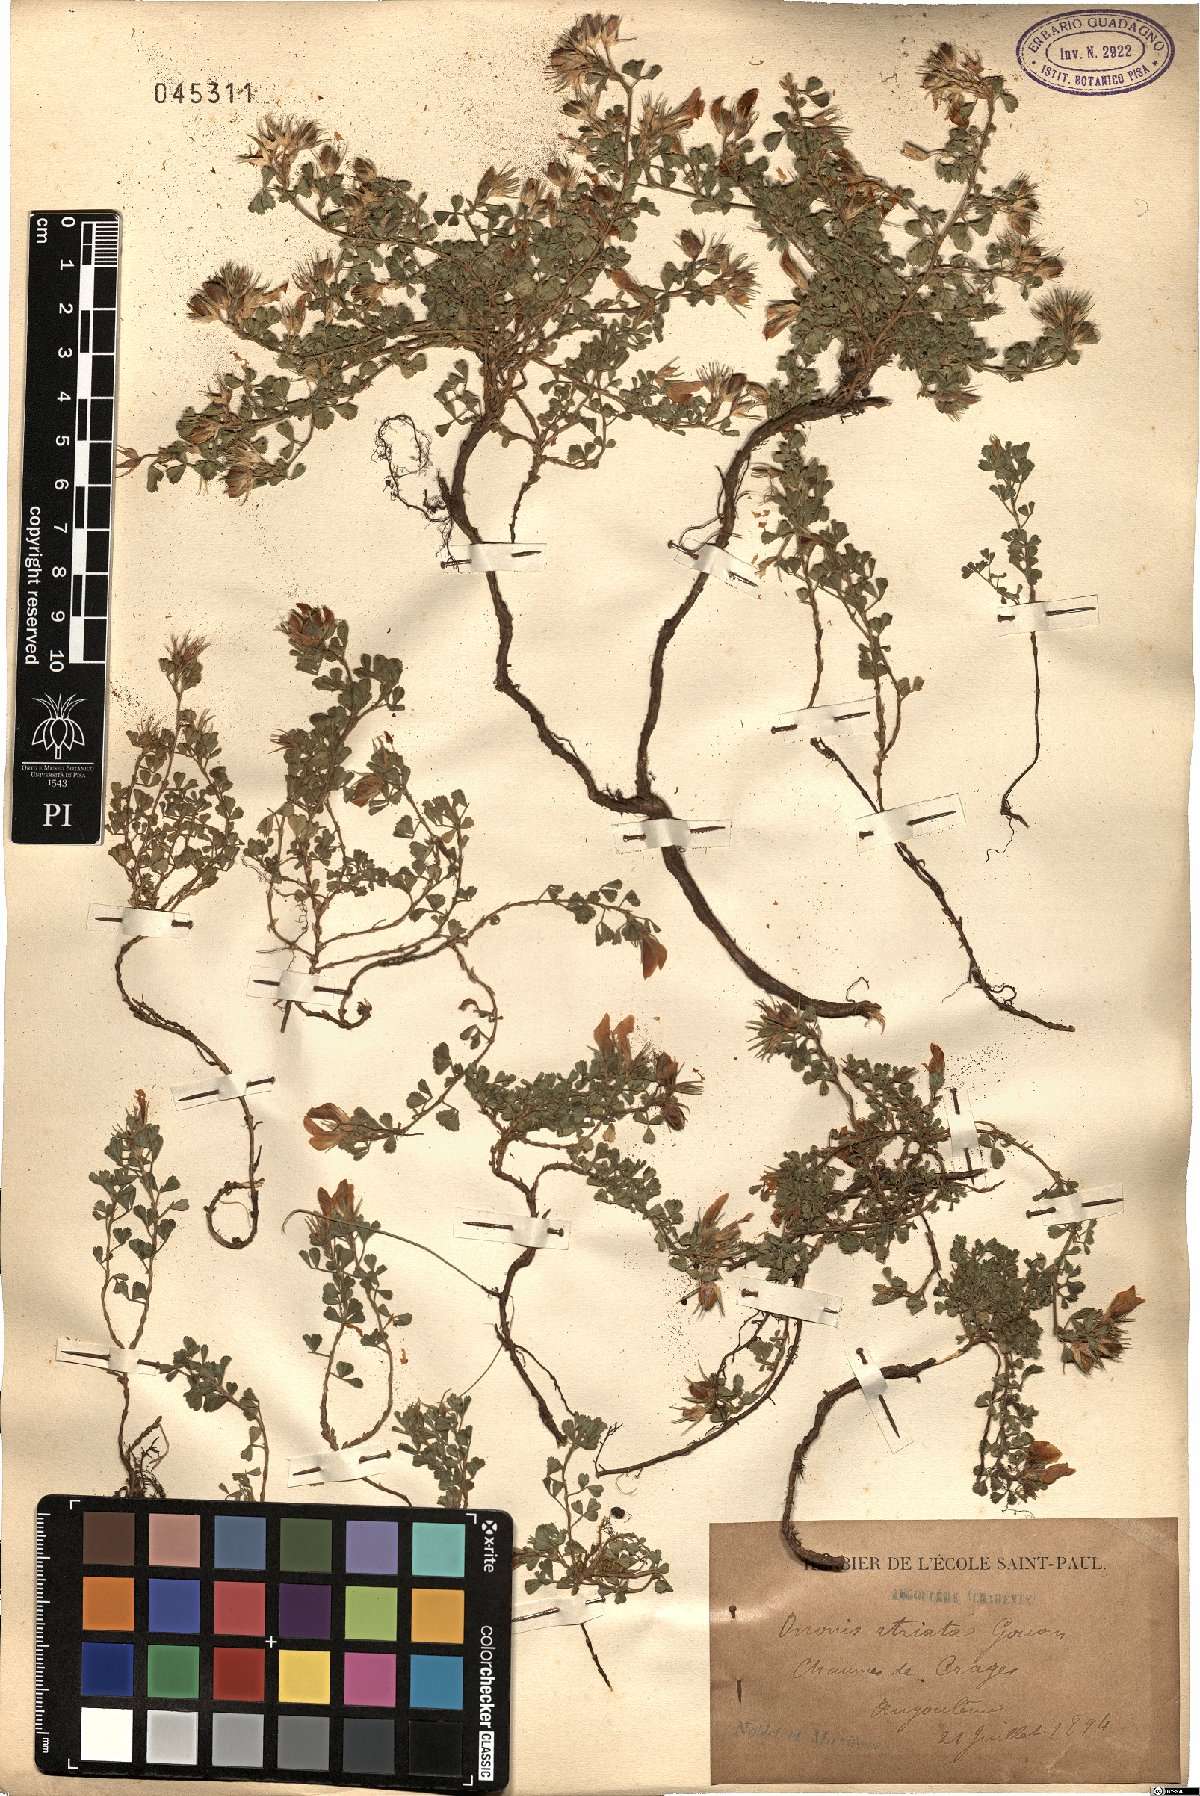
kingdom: Plantae
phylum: Tracheophyta
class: Magnoliopsida
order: Fabales
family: Fabaceae
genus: Ononis
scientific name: Ononis striata
